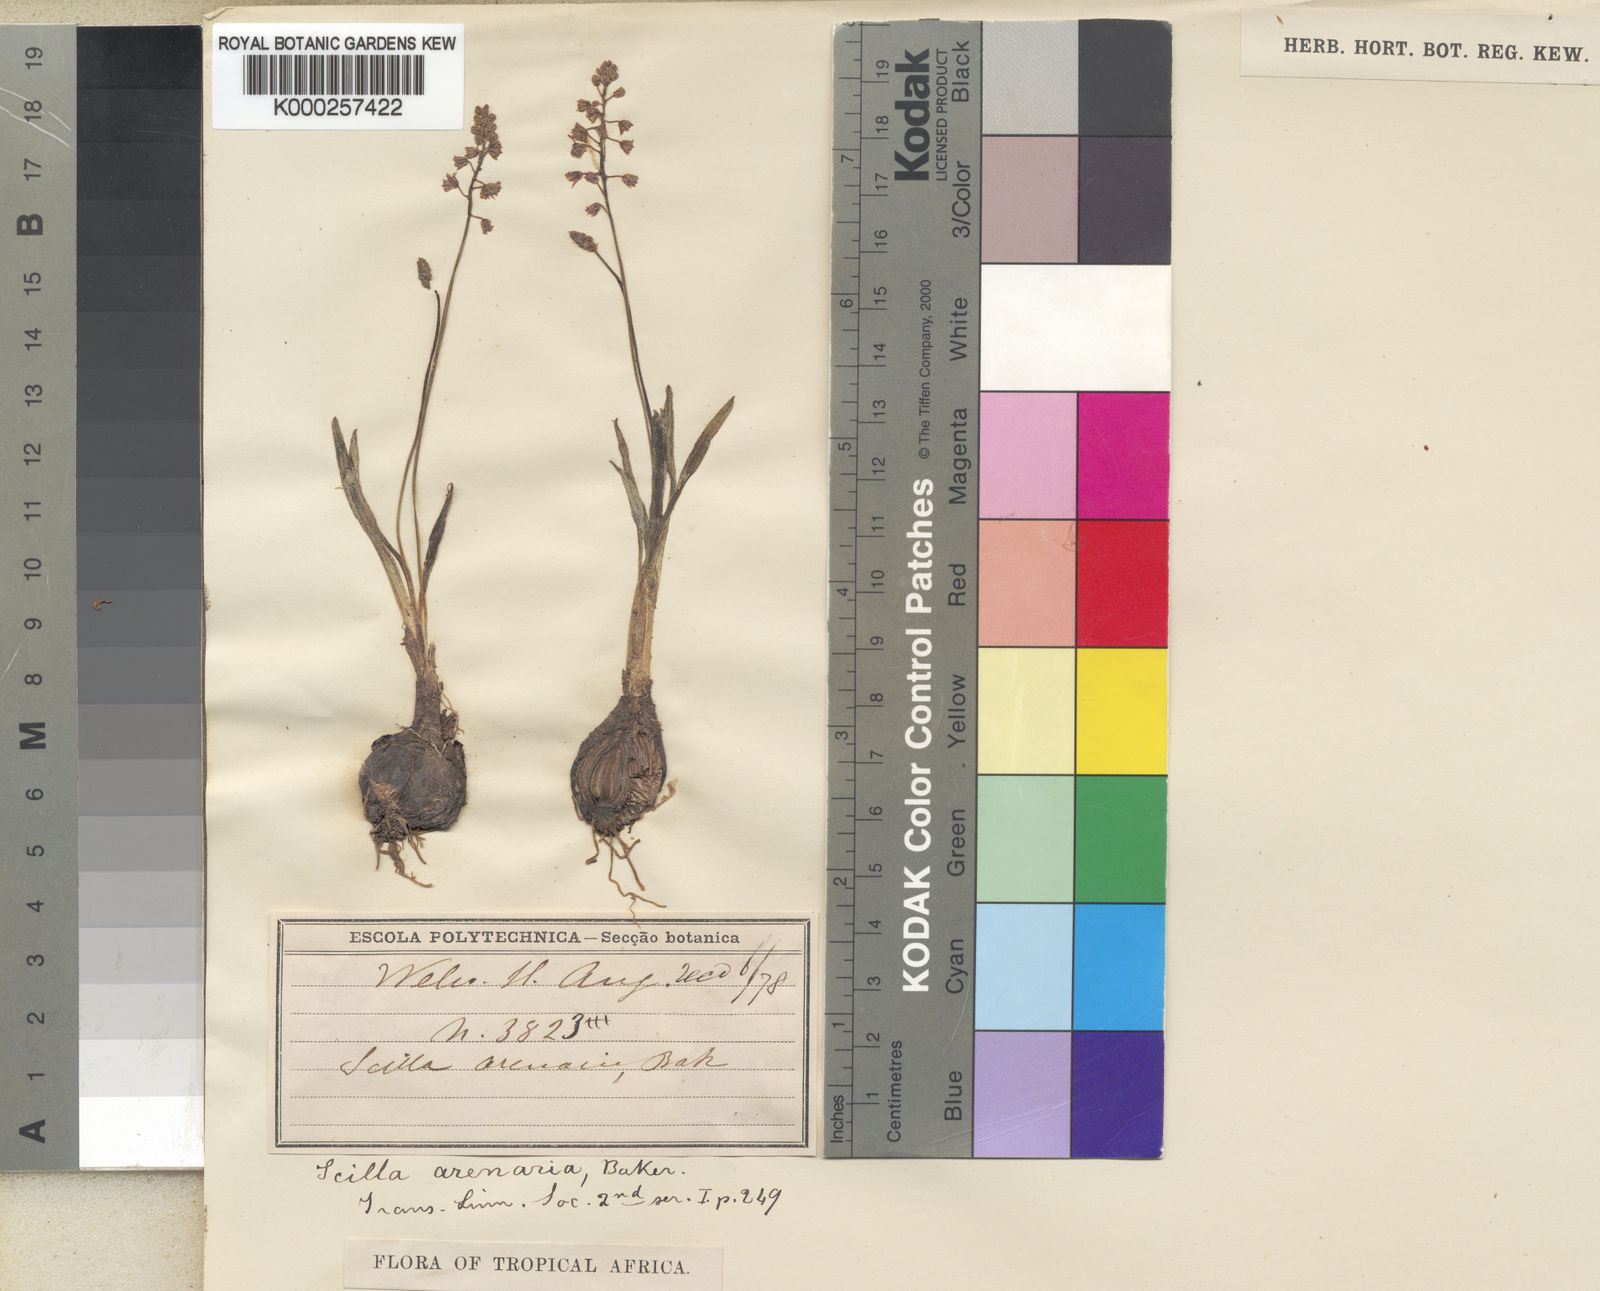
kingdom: Plantae
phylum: Tracheophyta
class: Liliopsida
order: Asparagales
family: Asparagaceae
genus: Scilla
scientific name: Scilla arenaria
